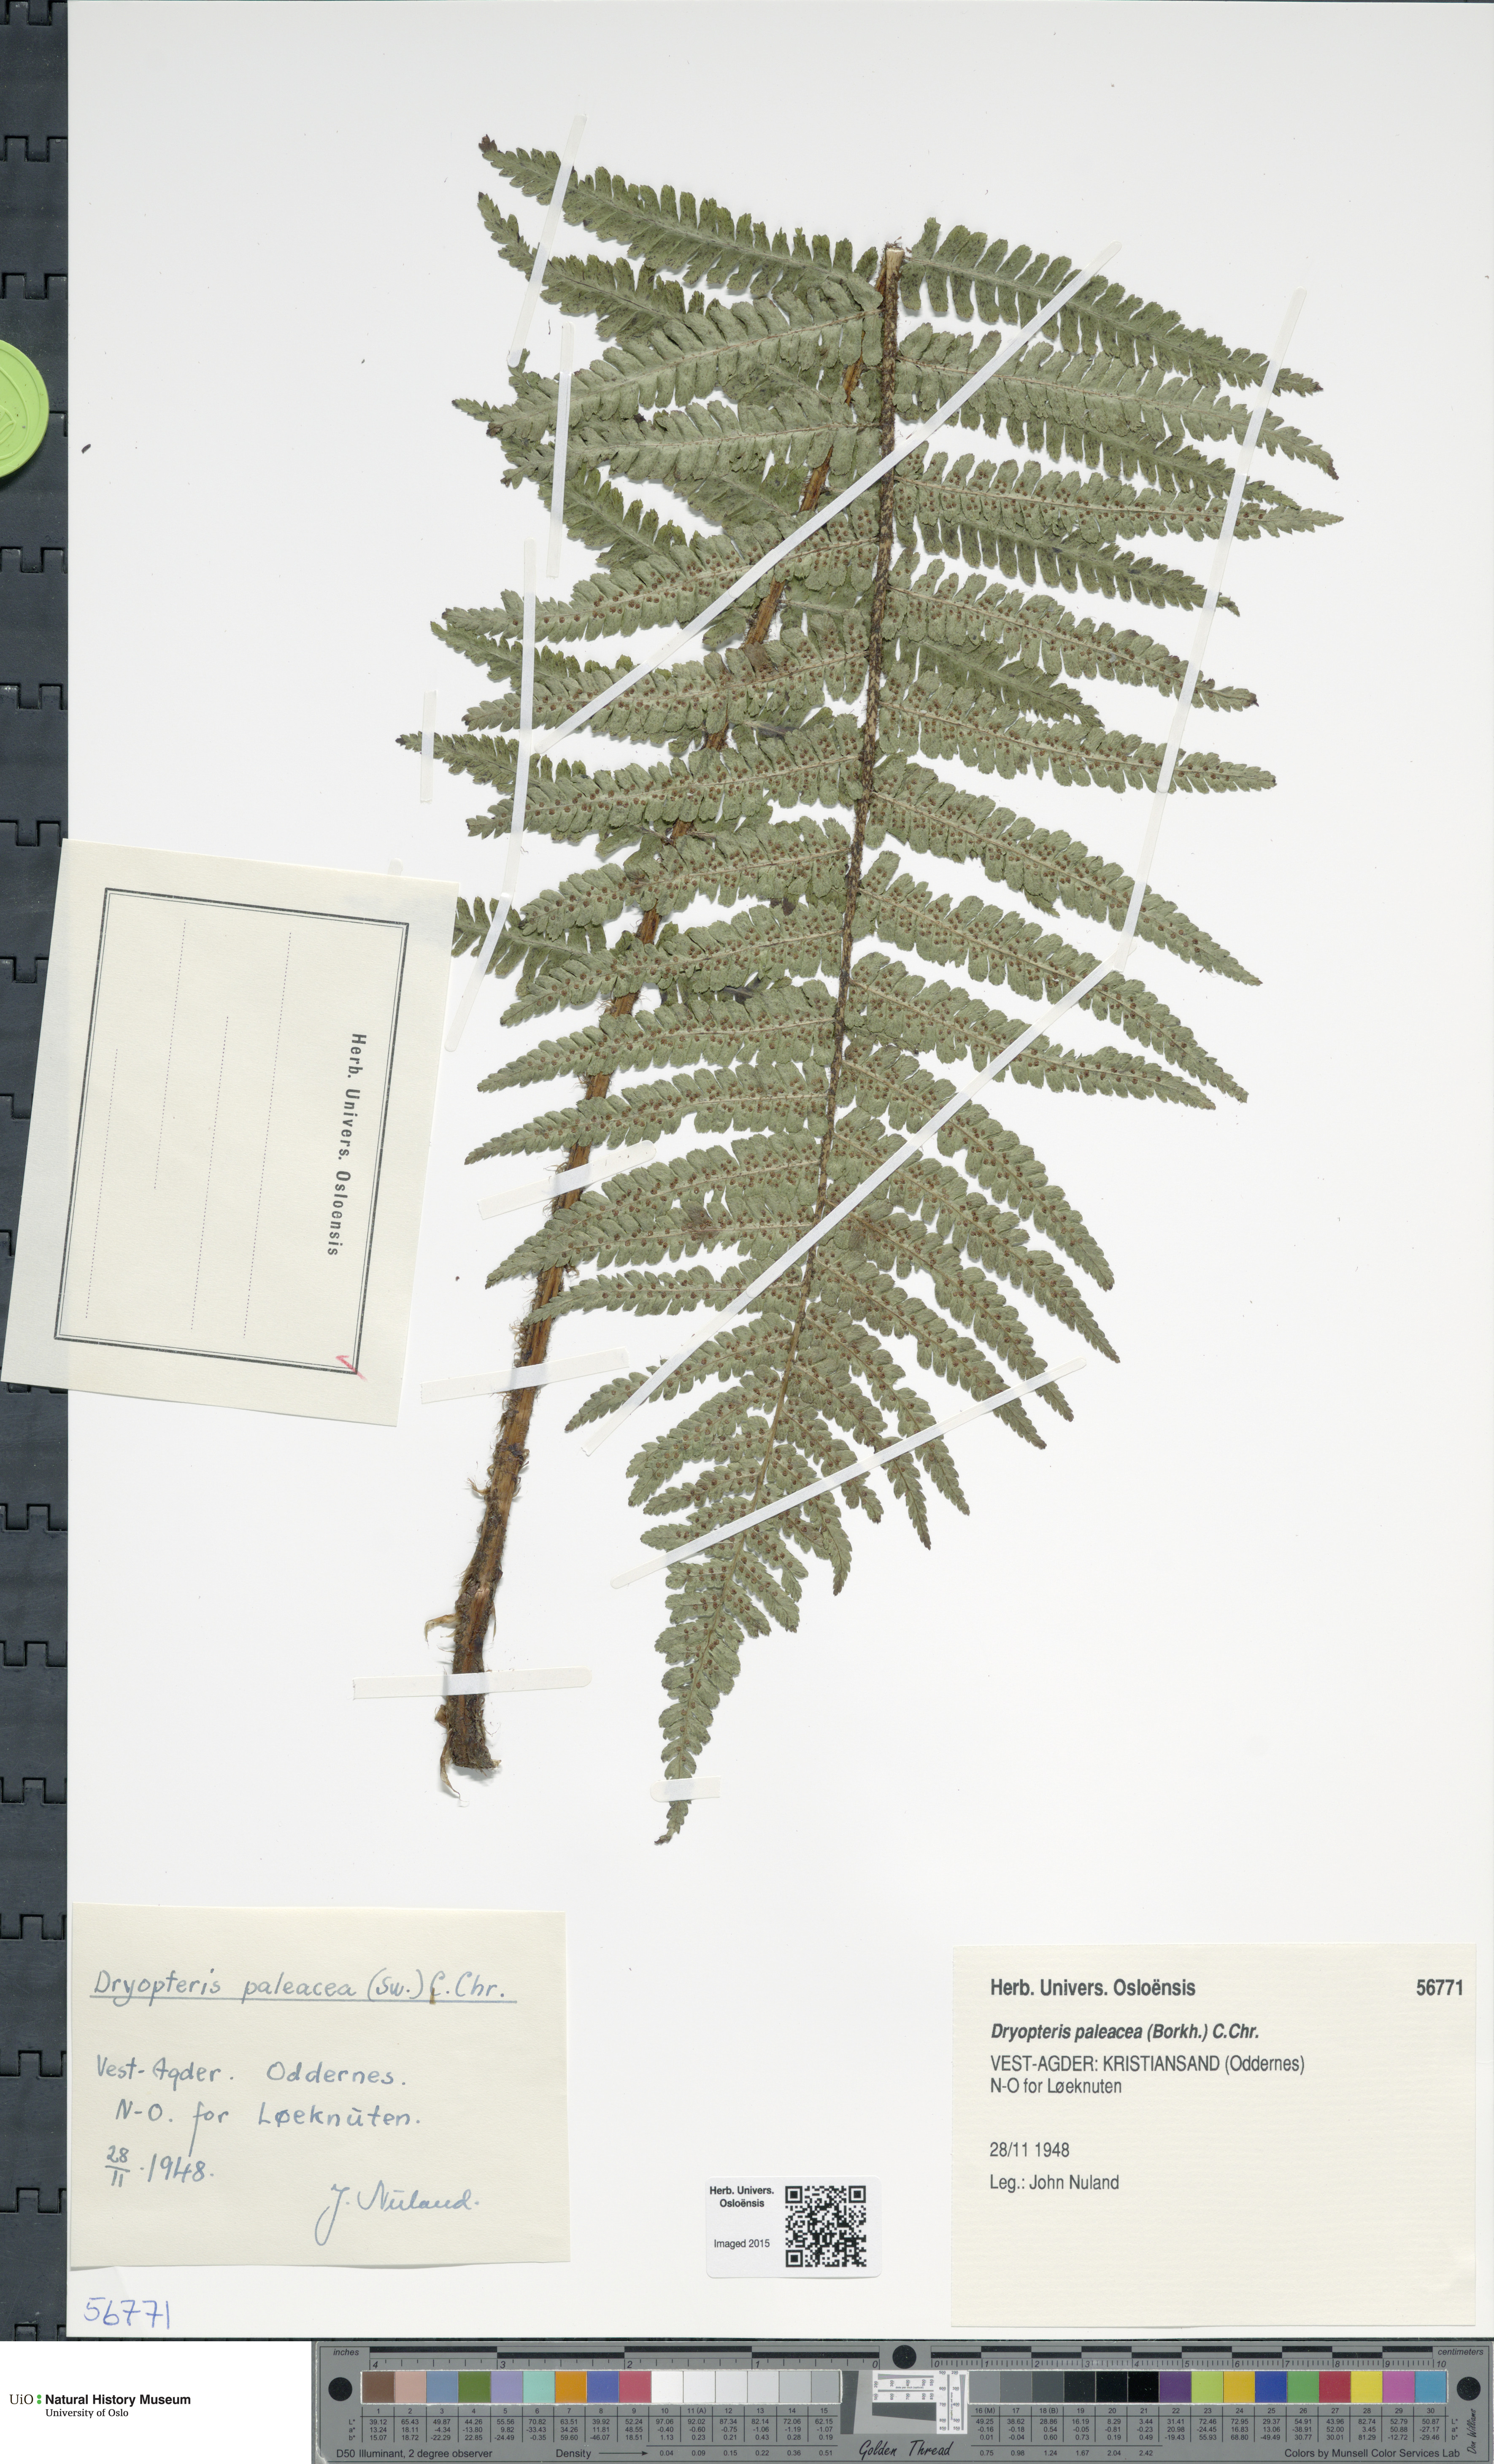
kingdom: Plantae
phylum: Tracheophyta
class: Polypodiopsida
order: Polypodiales
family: Dryopteridaceae
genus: Dryopteris
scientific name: Dryopteris wallichiana
